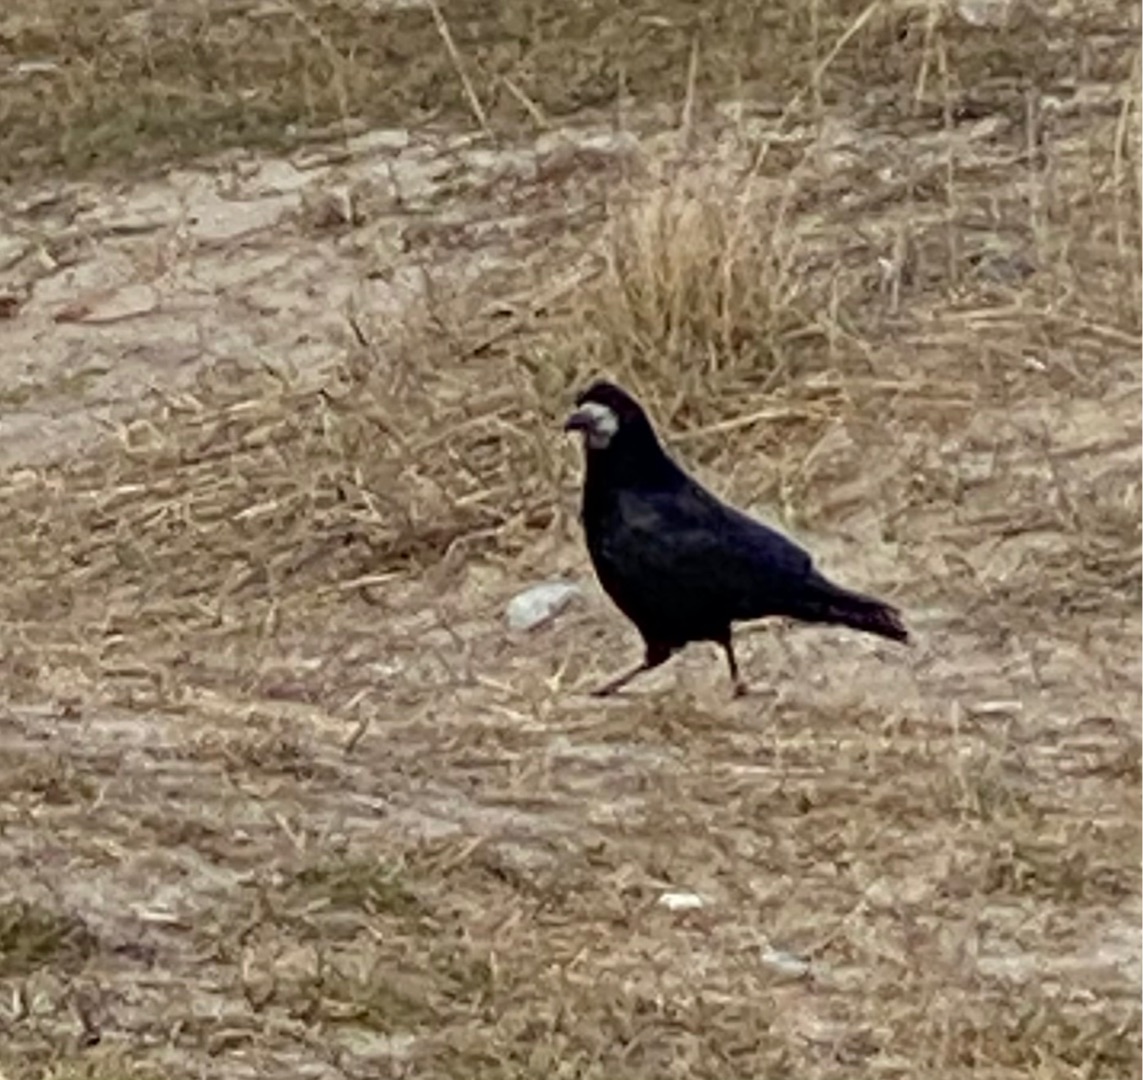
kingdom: Animalia
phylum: Chordata
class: Aves
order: Passeriformes
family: Corvidae
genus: Corvus
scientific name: Corvus frugilegus
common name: Råge
